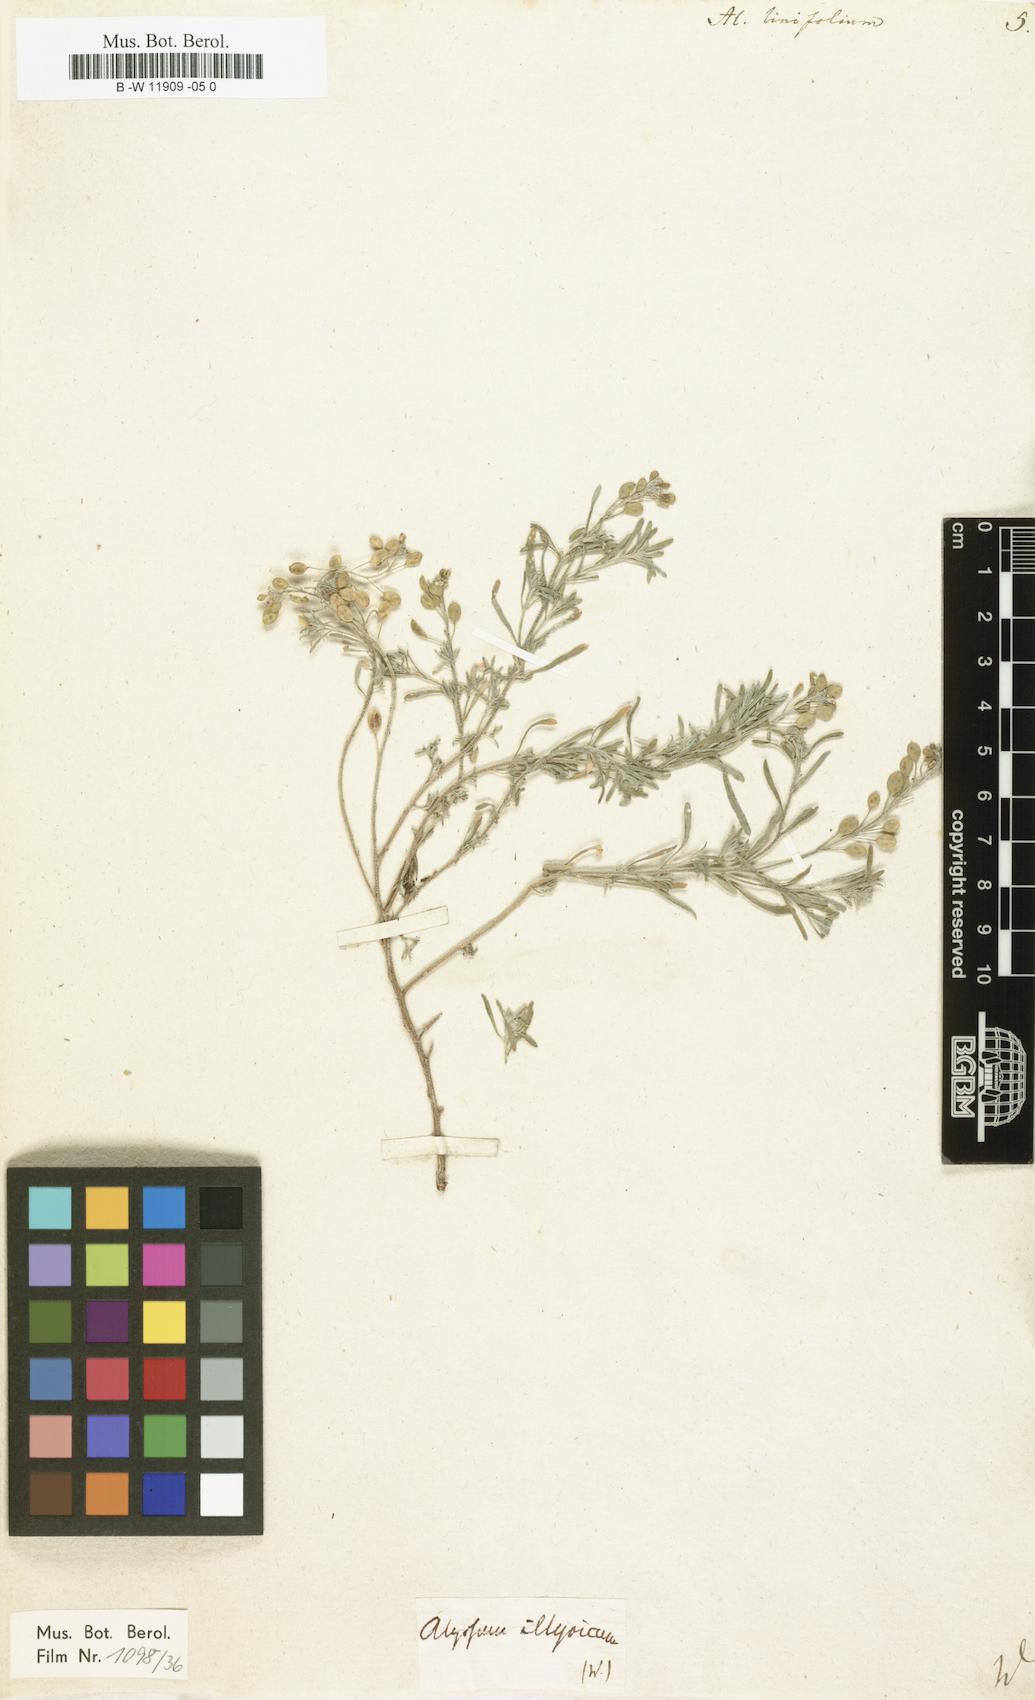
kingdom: Plantae
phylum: Tracheophyta
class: Magnoliopsida
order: Brassicales
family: Brassicaceae
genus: Meniocus
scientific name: Meniocus linifolius
